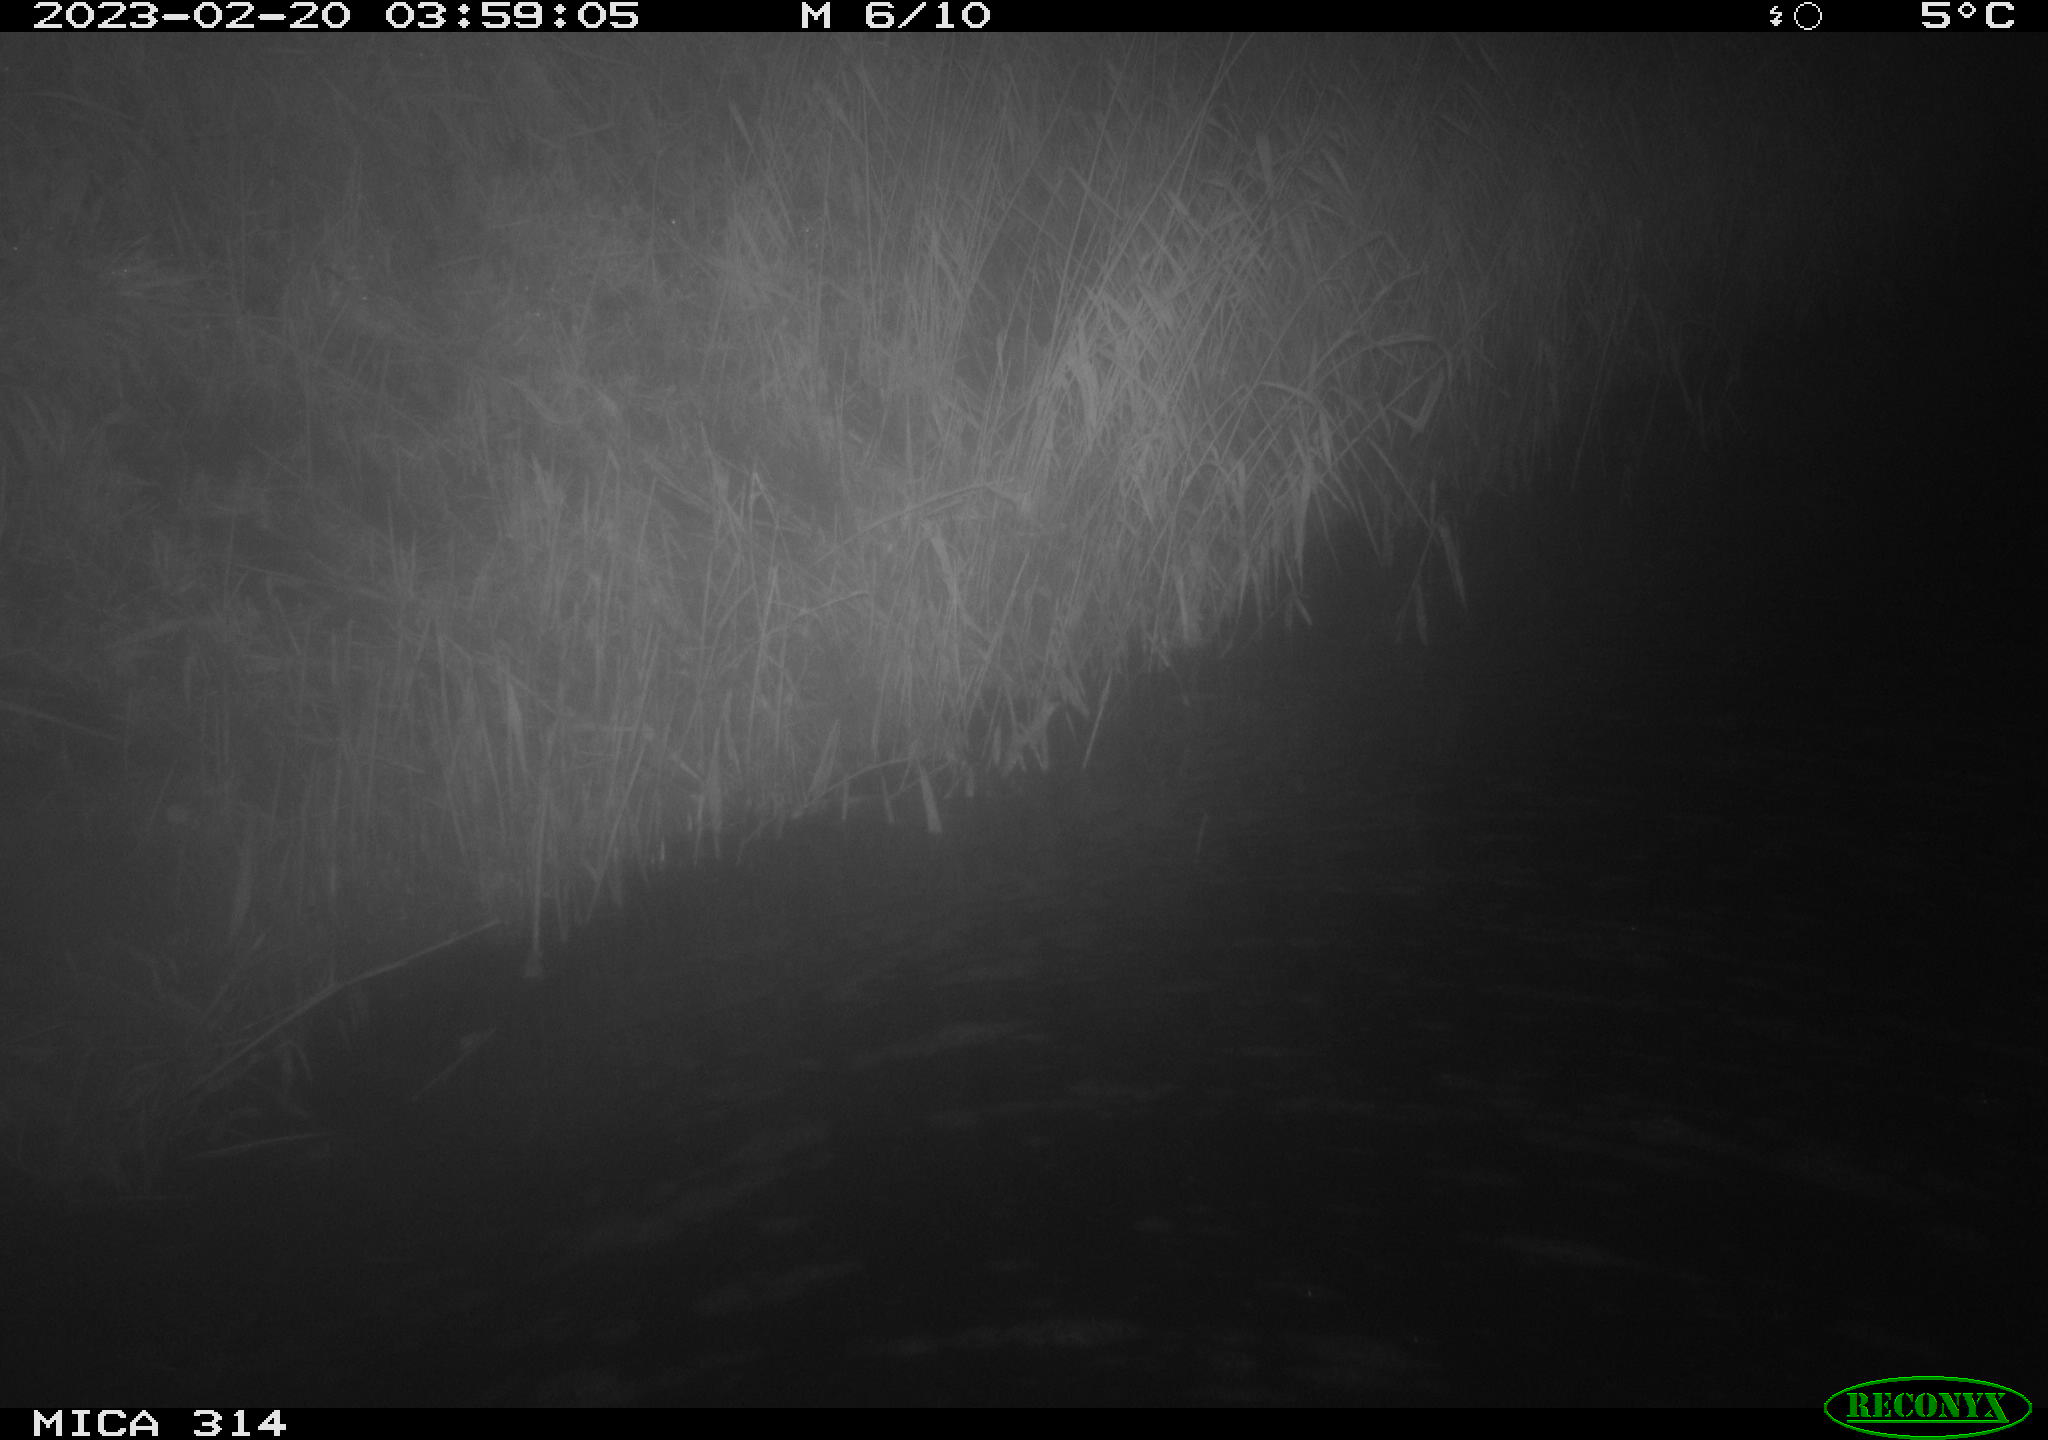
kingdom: Animalia
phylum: Chordata
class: Mammalia
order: Rodentia
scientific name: Rodentia
